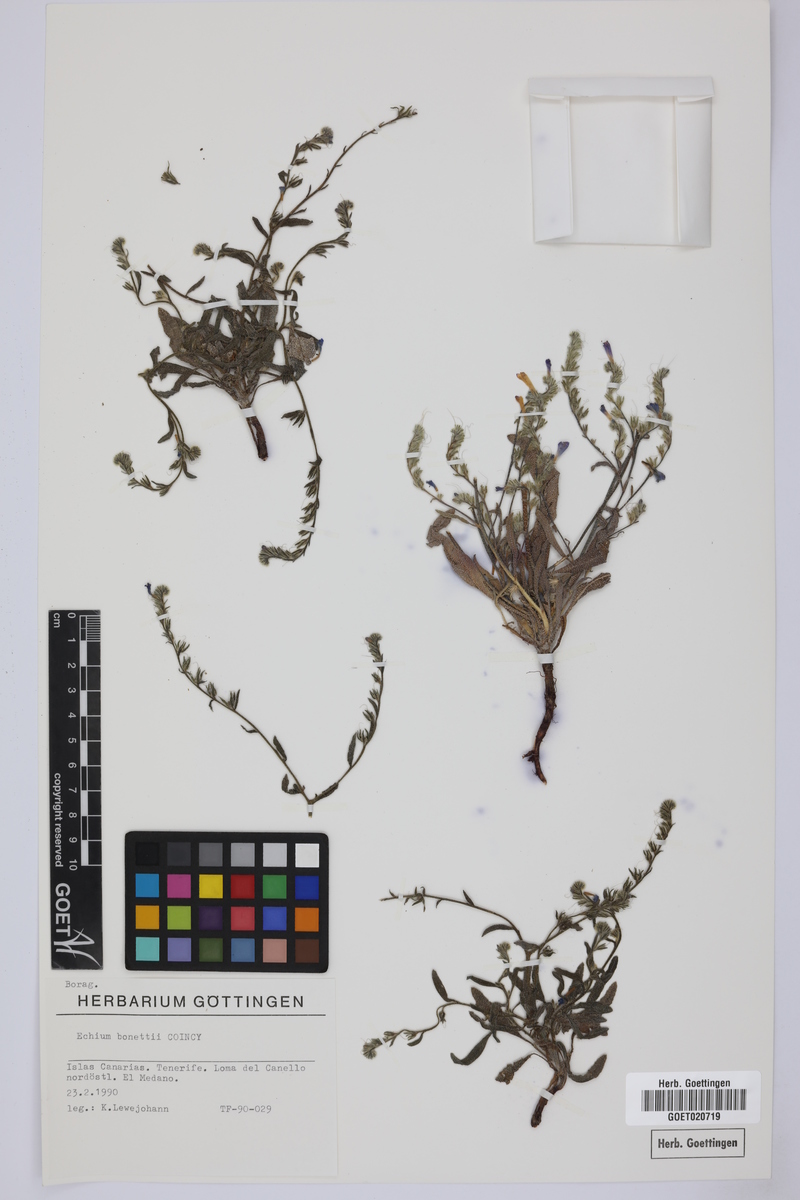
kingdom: Plantae
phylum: Tracheophyta
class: Magnoliopsida
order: Boraginales
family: Boraginaceae
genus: Echium
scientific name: Echium bonnetii
